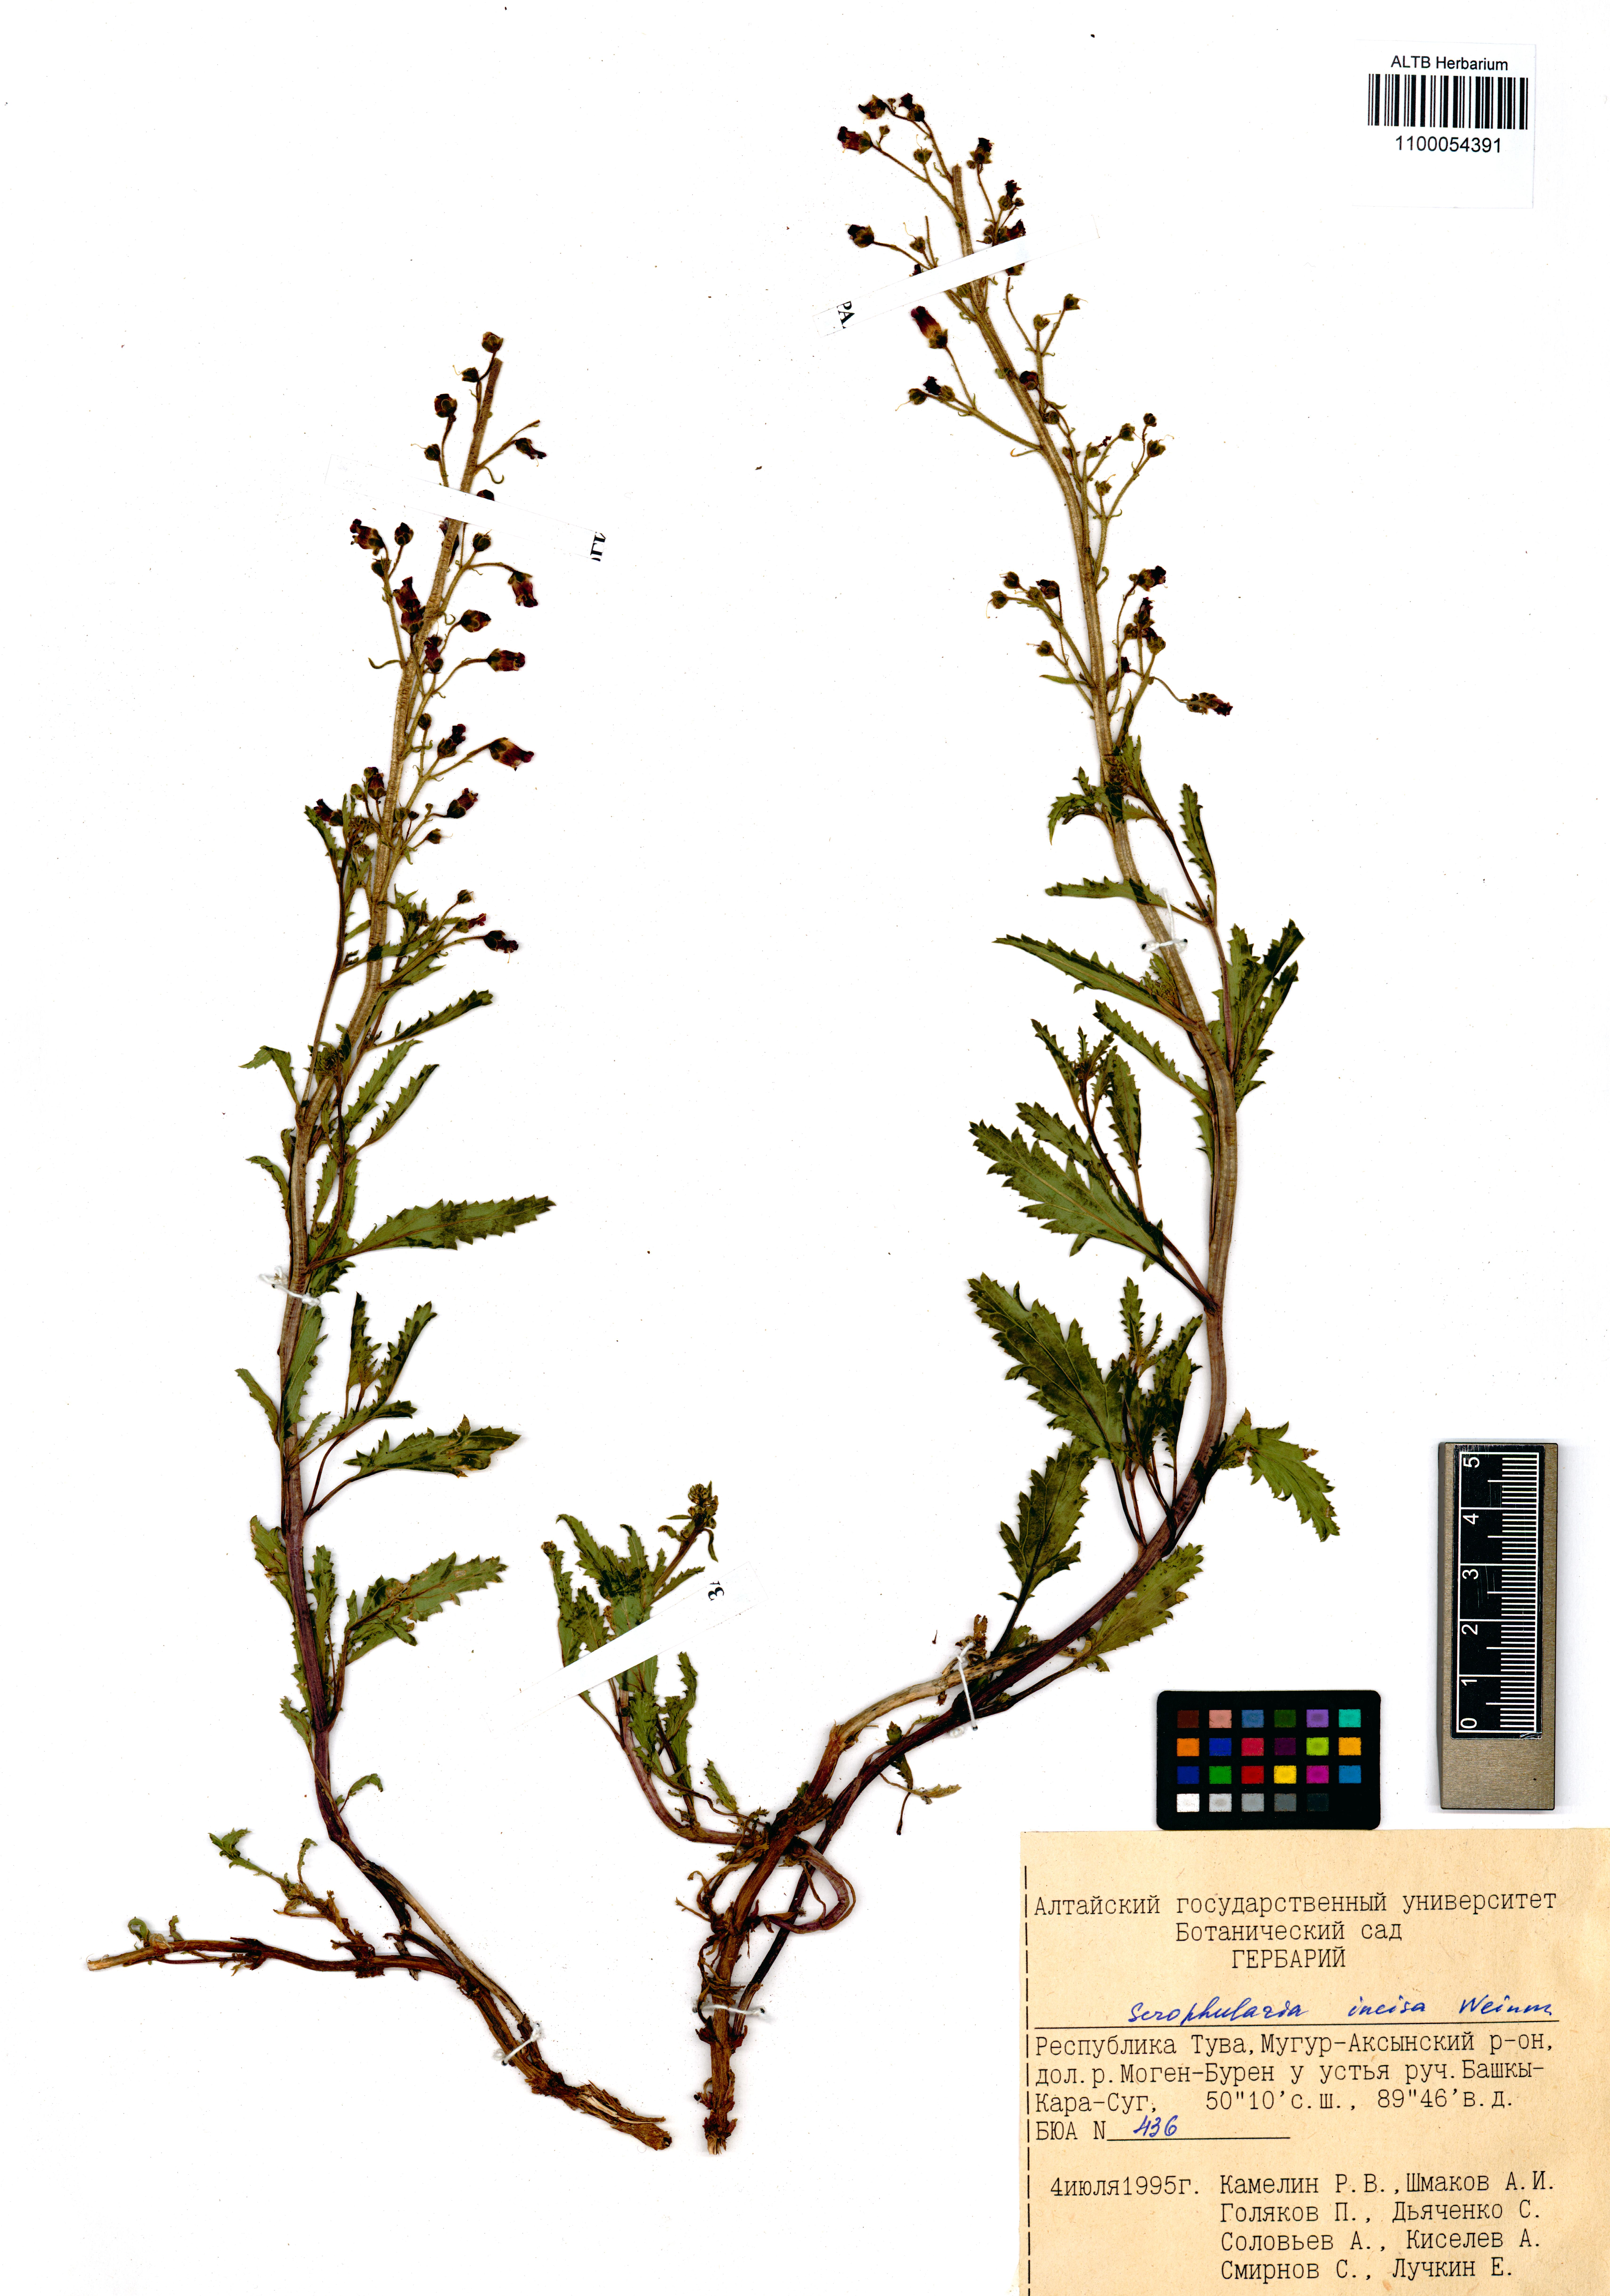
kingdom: Plantae
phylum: Tracheophyta
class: Magnoliopsida
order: Lamiales
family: Scrophulariaceae
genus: Scrophularia
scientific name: Scrophularia incisa
